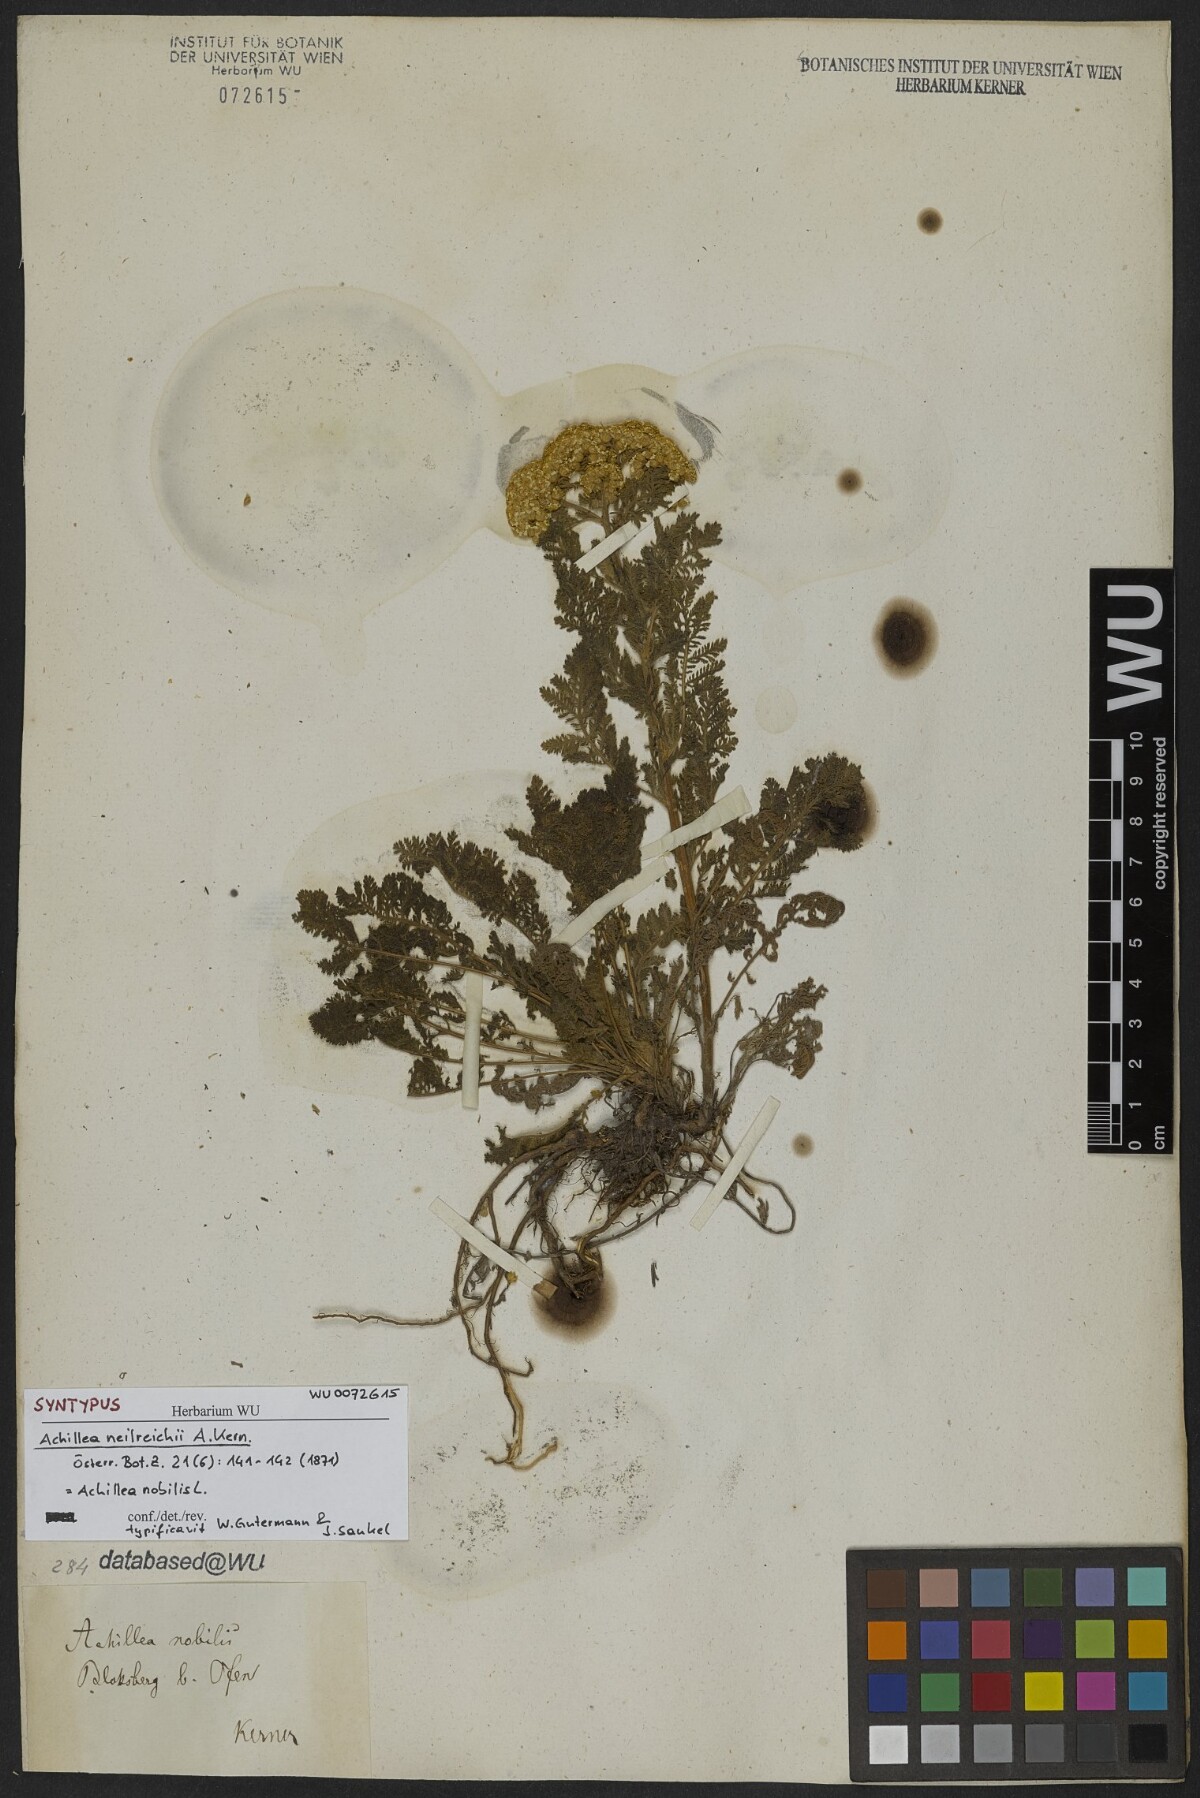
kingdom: Plantae
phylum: Tracheophyta
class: Magnoliopsida
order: Asterales
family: Asteraceae
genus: Achillea
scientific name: Achillea nobilis
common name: Noble yarrow
